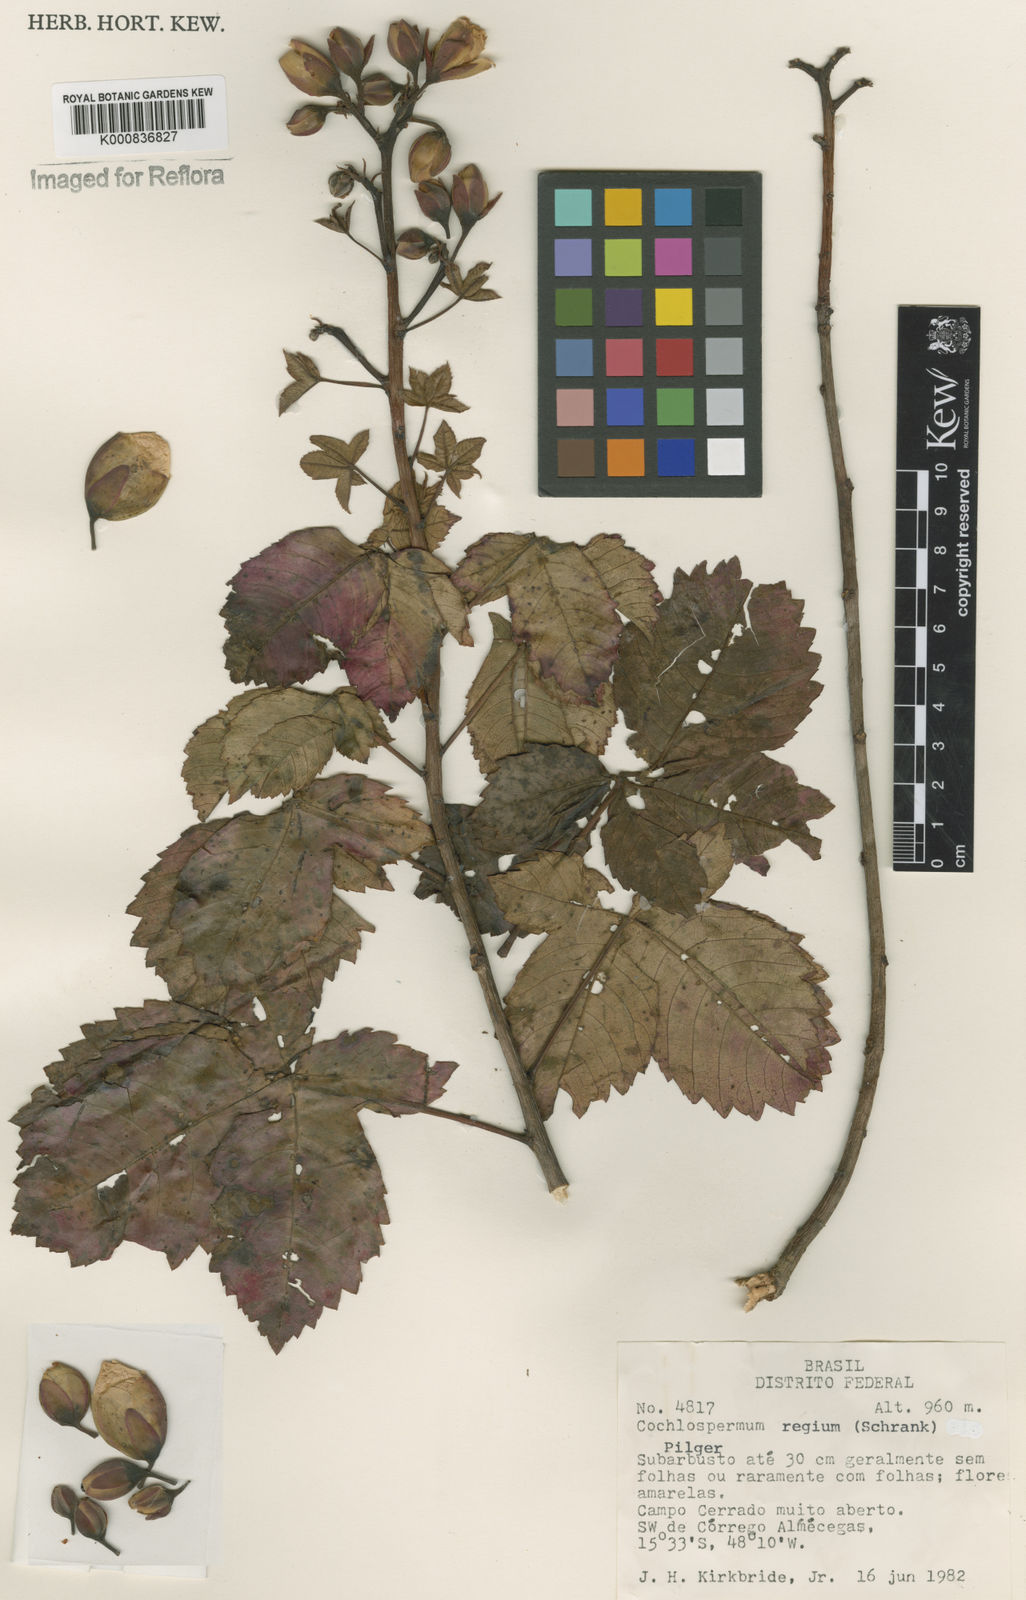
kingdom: Plantae
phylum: Tracheophyta
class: Magnoliopsida
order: Malvales
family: Cochlospermaceae
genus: Cochlospermum
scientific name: Cochlospermum regium
